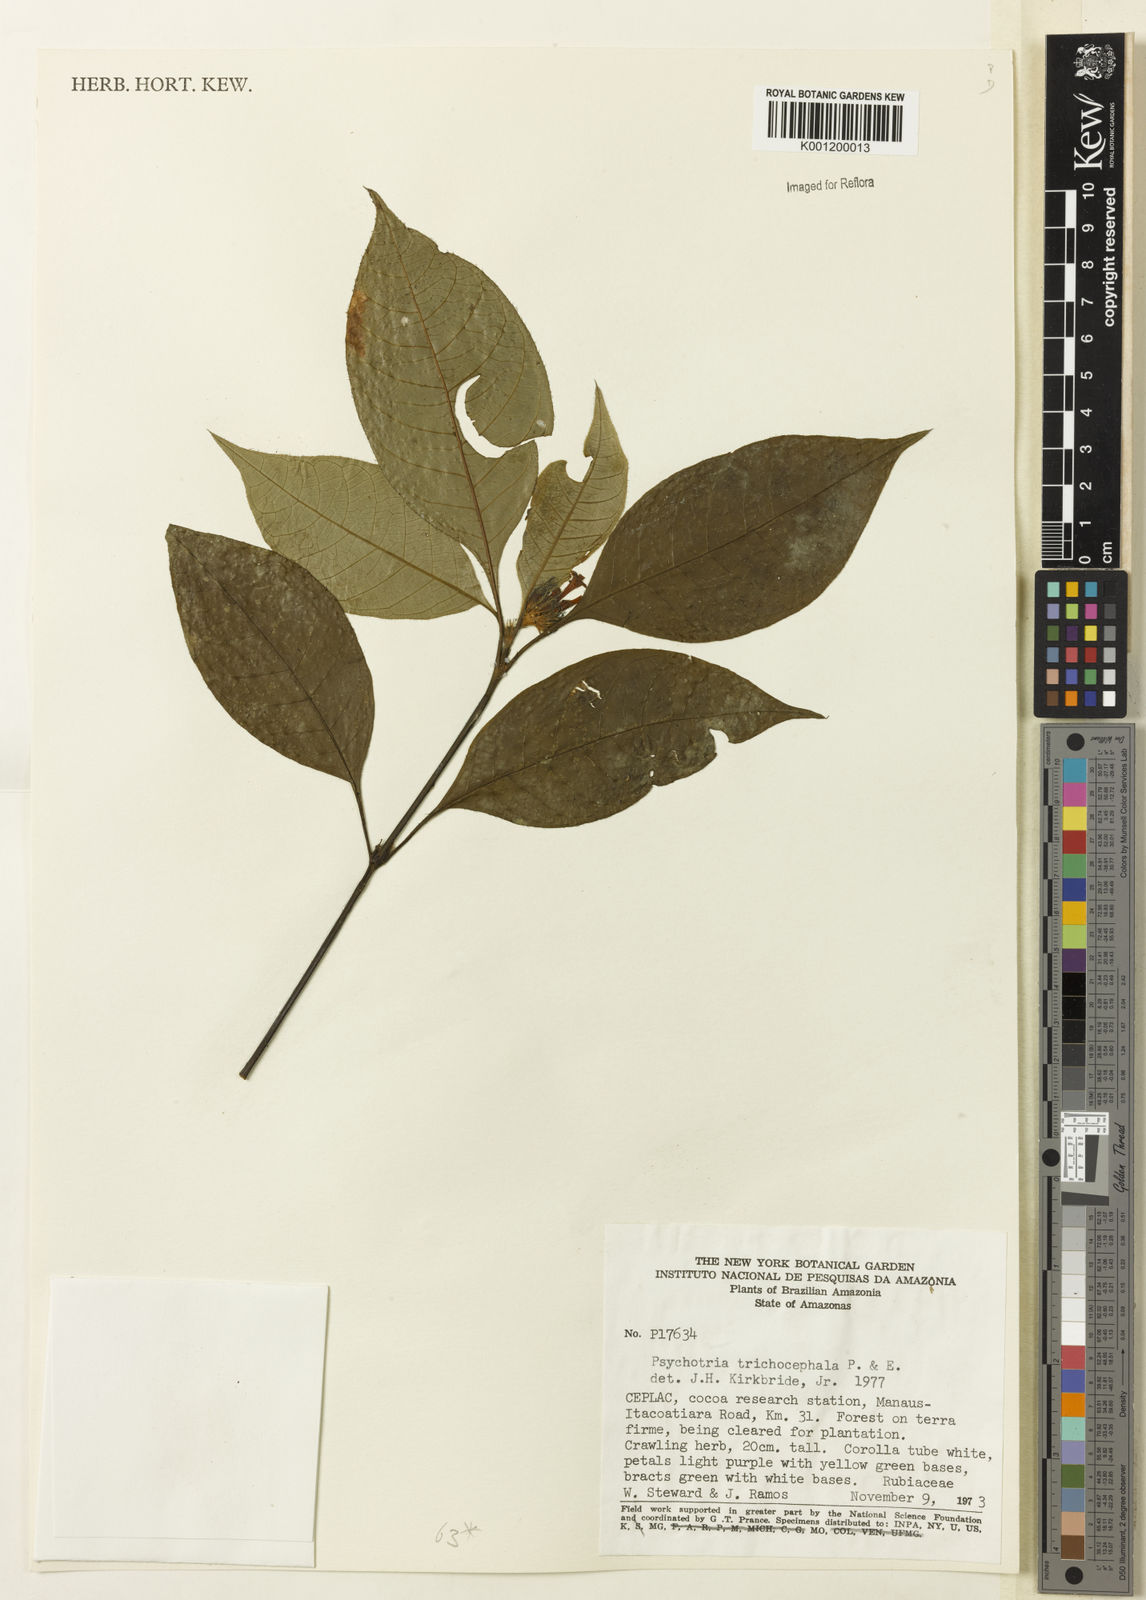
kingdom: Plantae
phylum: Tracheophyta
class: Magnoliopsida
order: Gentianales
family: Rubiaceae
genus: Palicourea
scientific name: Palicourea trichocephala
